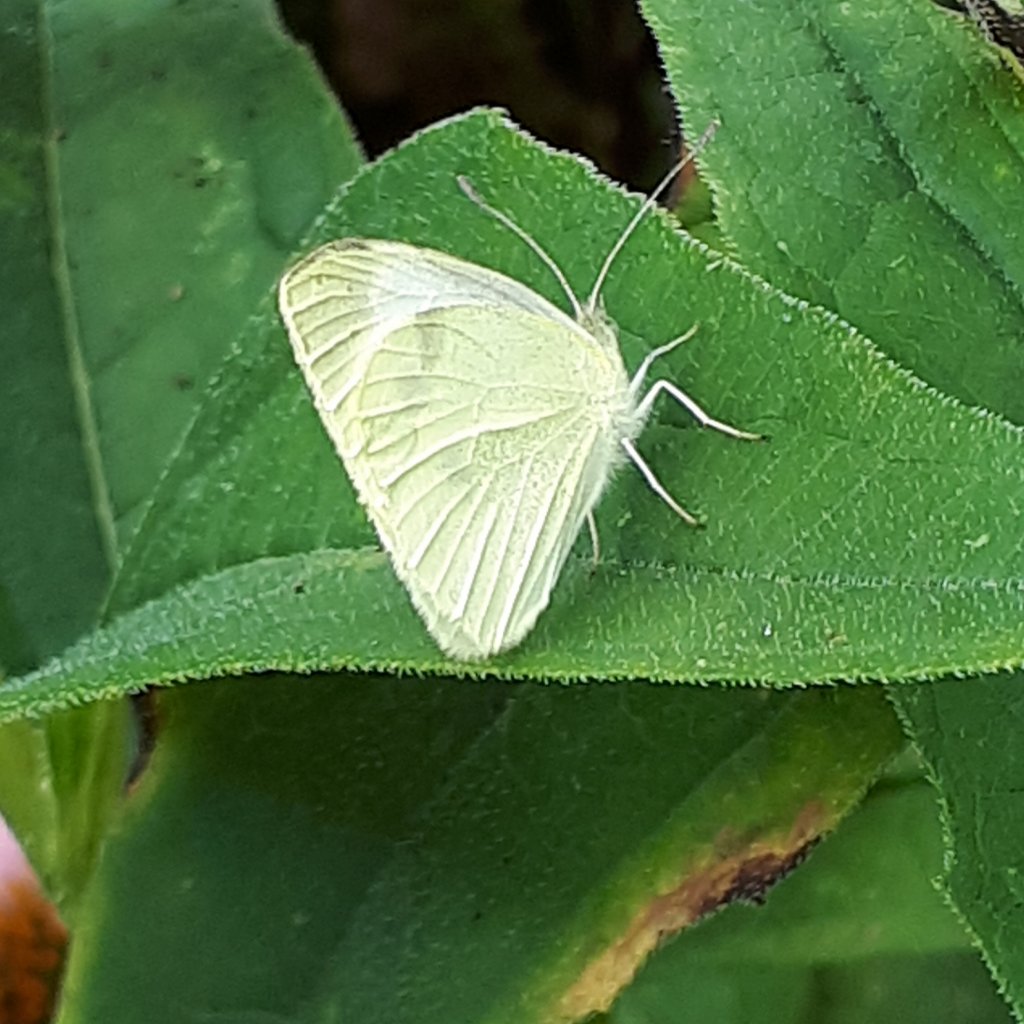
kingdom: Animalia
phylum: Arthropoda
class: Insecta
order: Lepidoptera
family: Pieridae
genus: Pieris
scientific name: Pieris rapae
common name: Cabbage White
